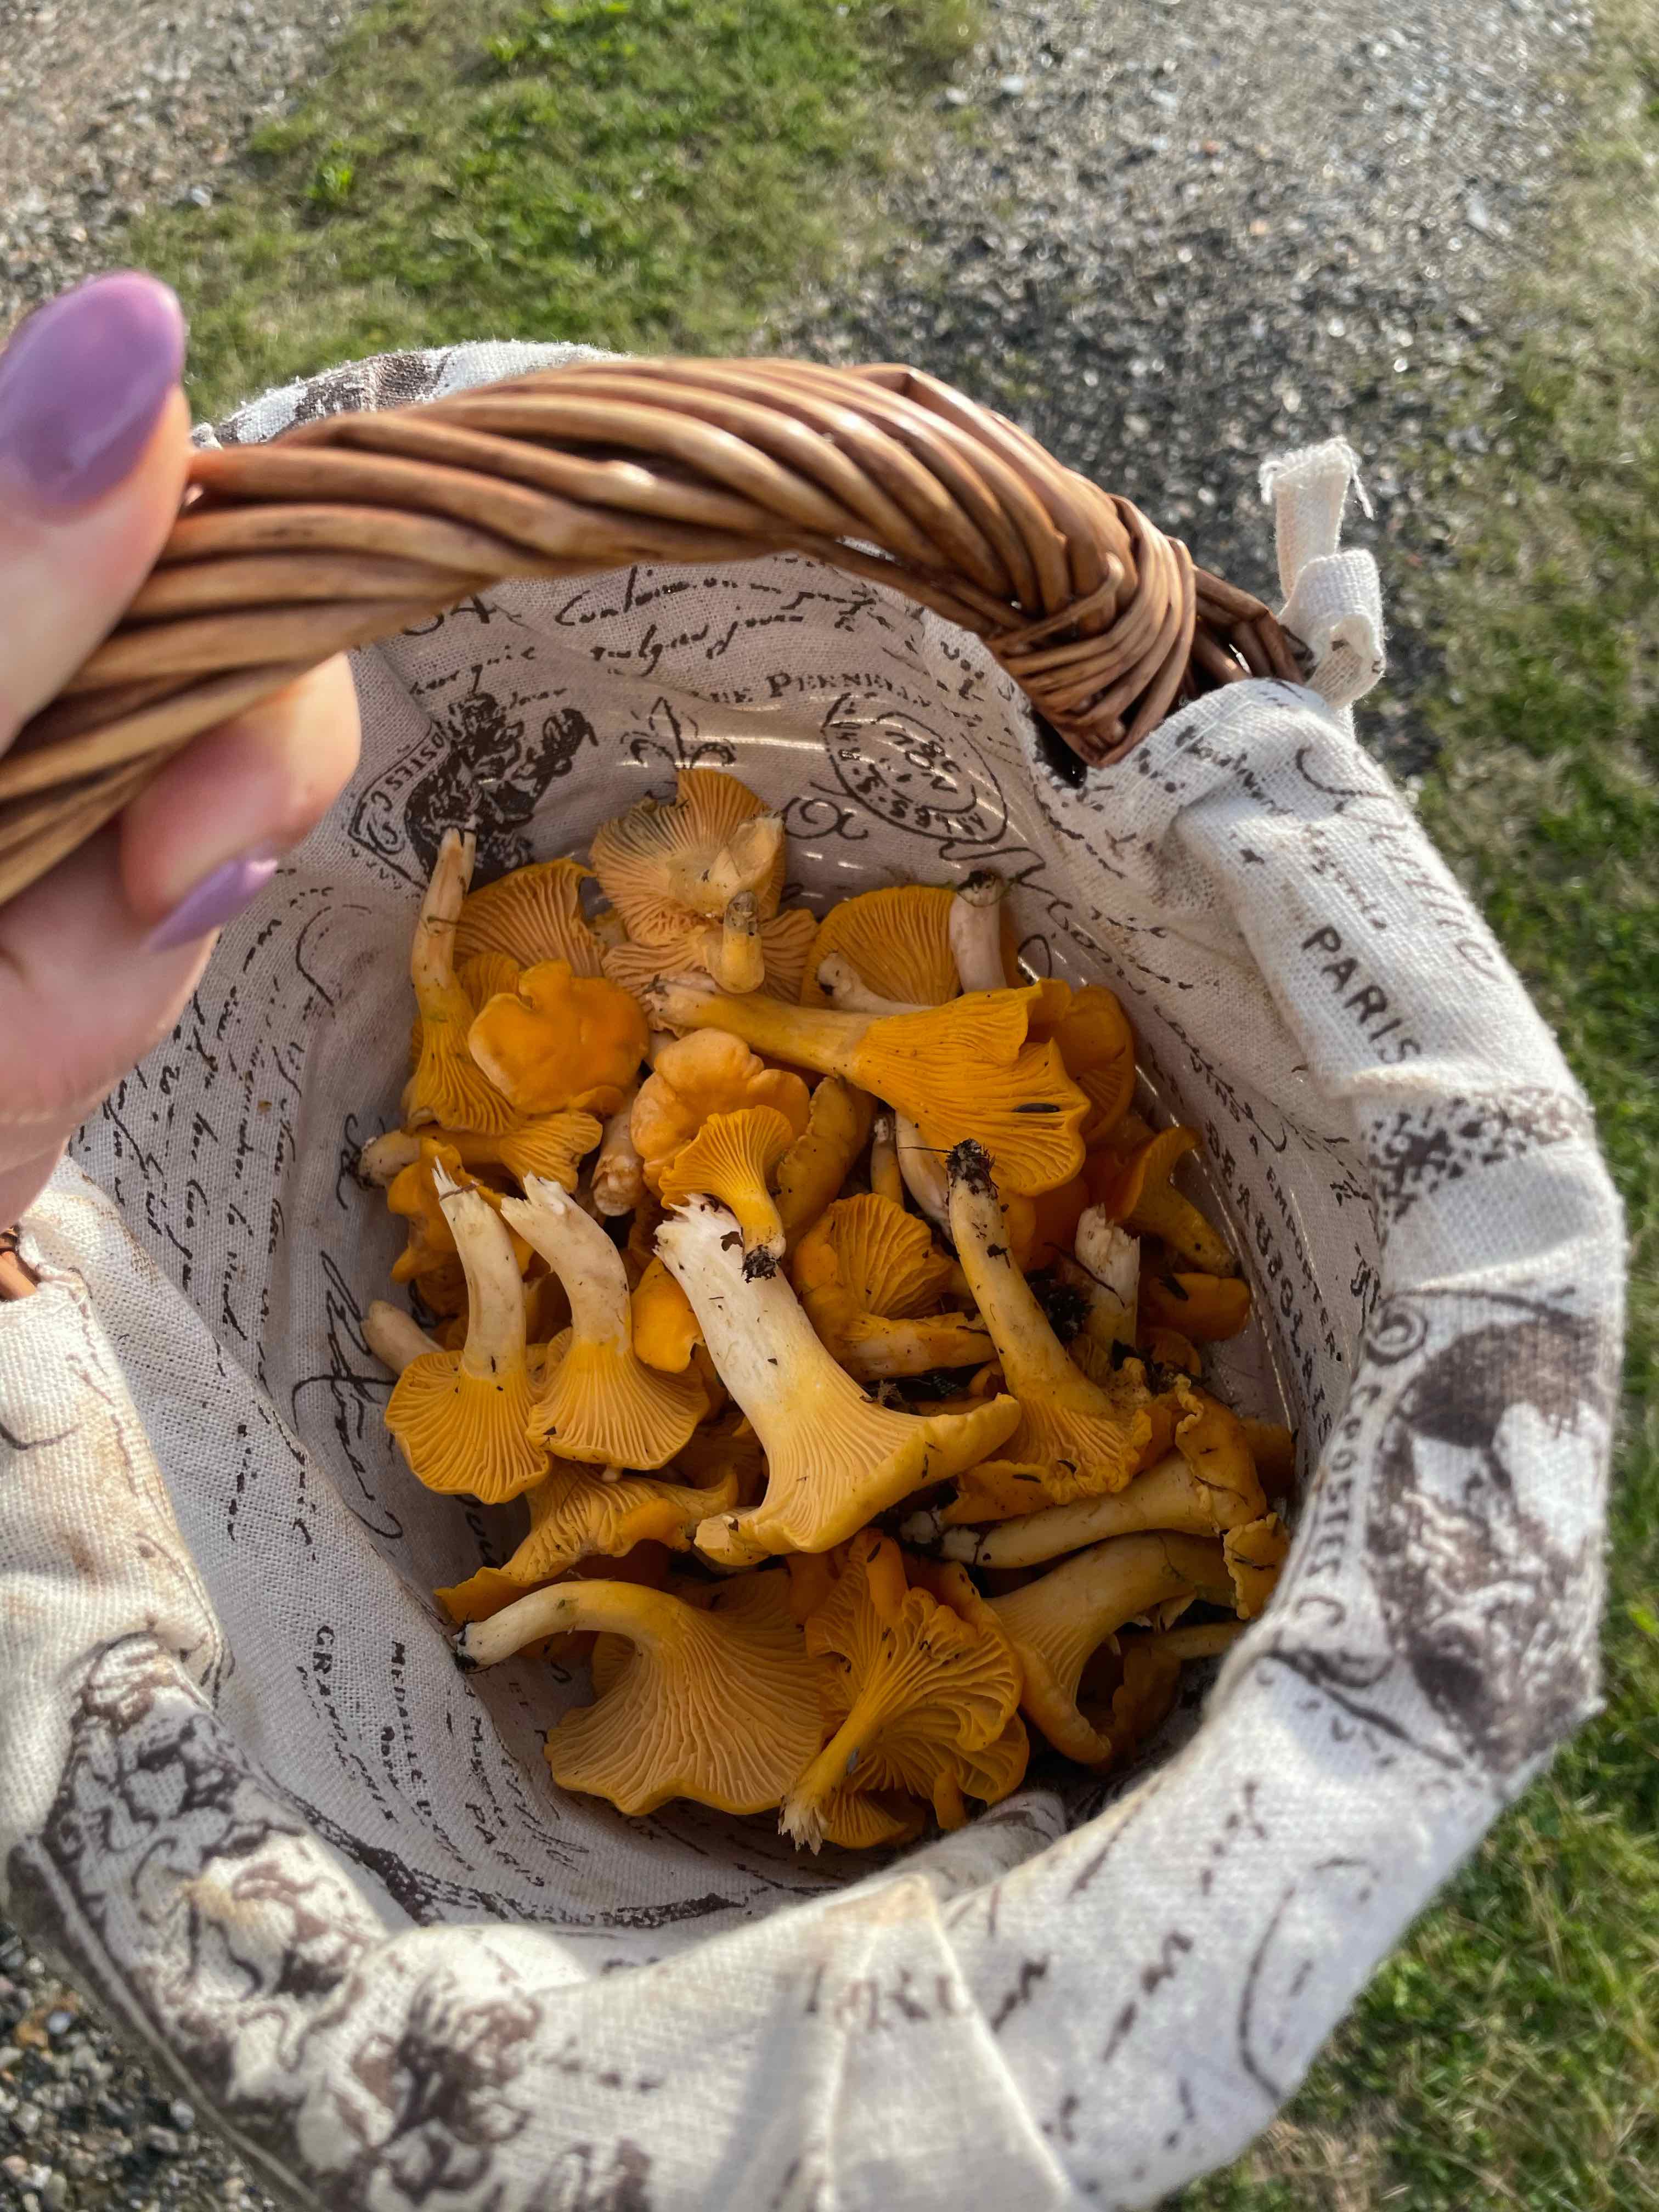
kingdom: Fungi
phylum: Basidiomycota
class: Agaricomycetes
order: Cantharellales
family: Hydnaceae
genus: Cantharellus
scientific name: Cantharellus cibarius
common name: almindelig kantarel
